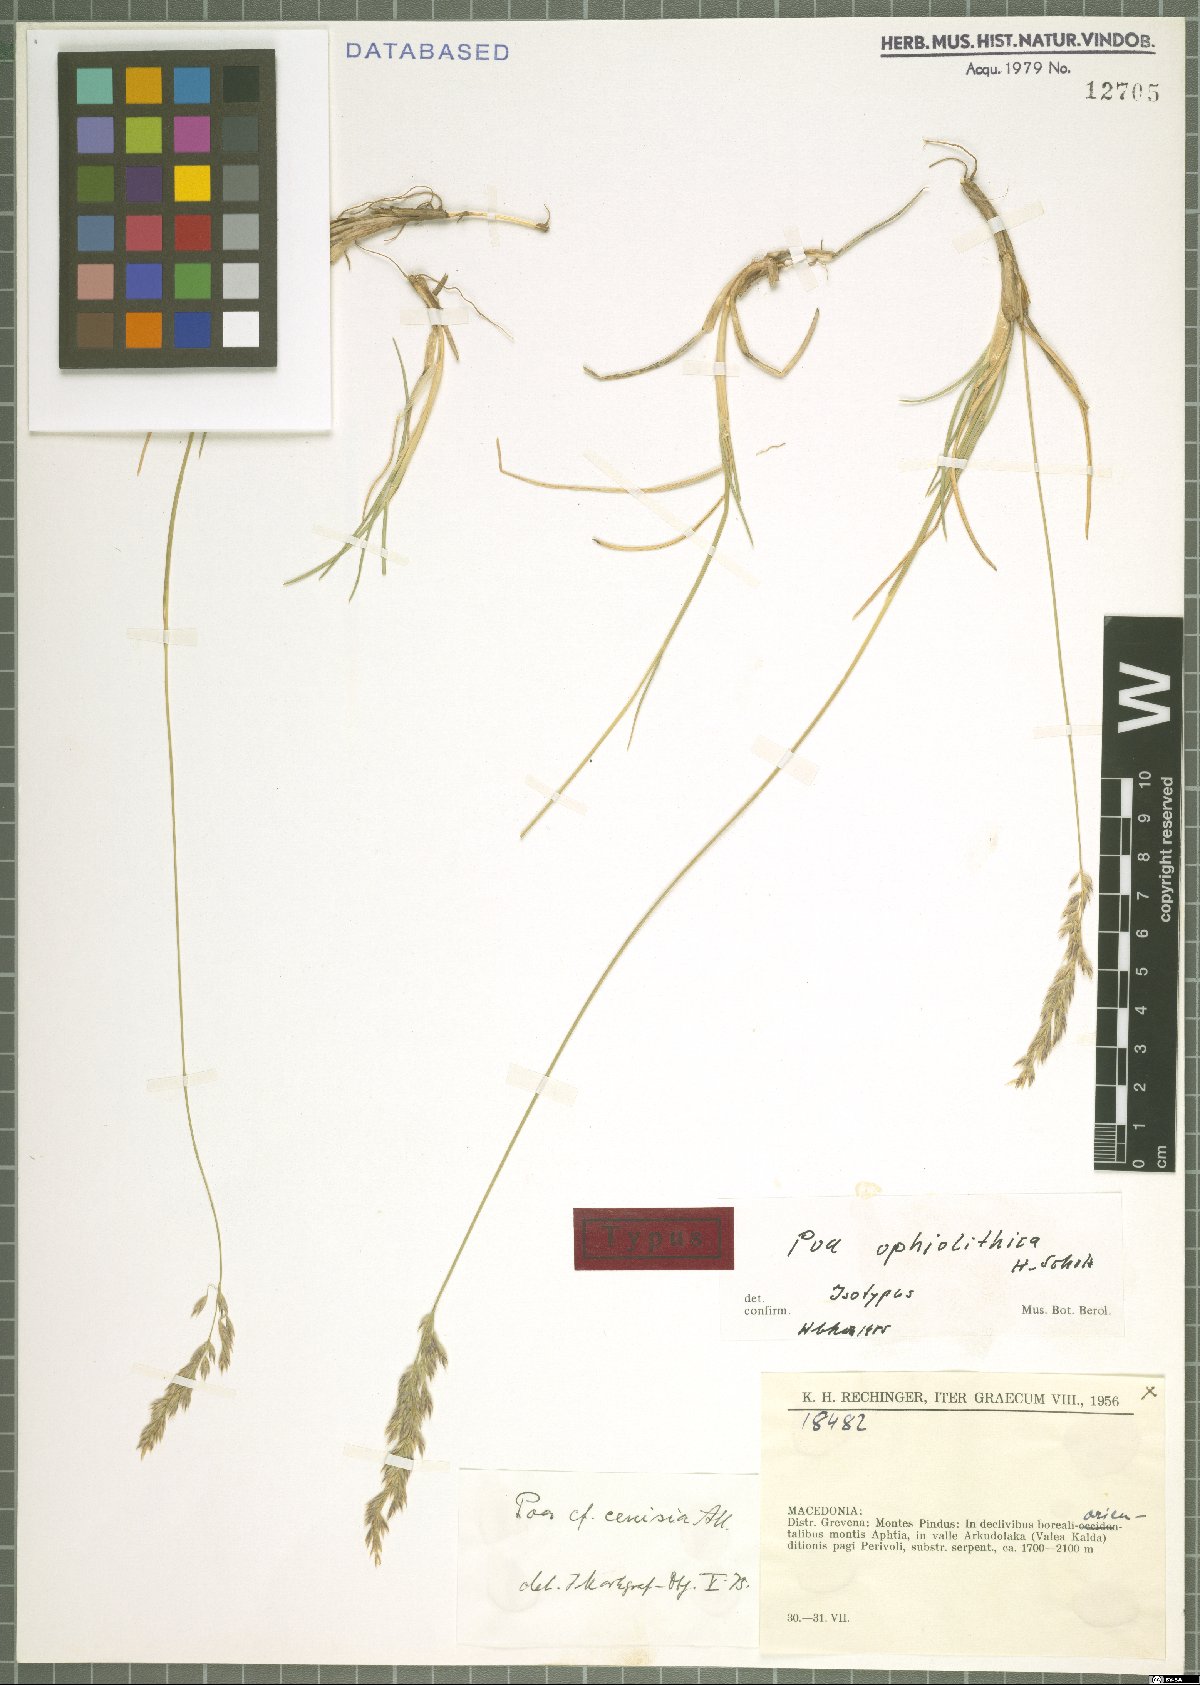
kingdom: Plantae
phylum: Tracheophyta
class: Liliopsida
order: Poales
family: Poaceae
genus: Poa
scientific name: Poa cenisia
